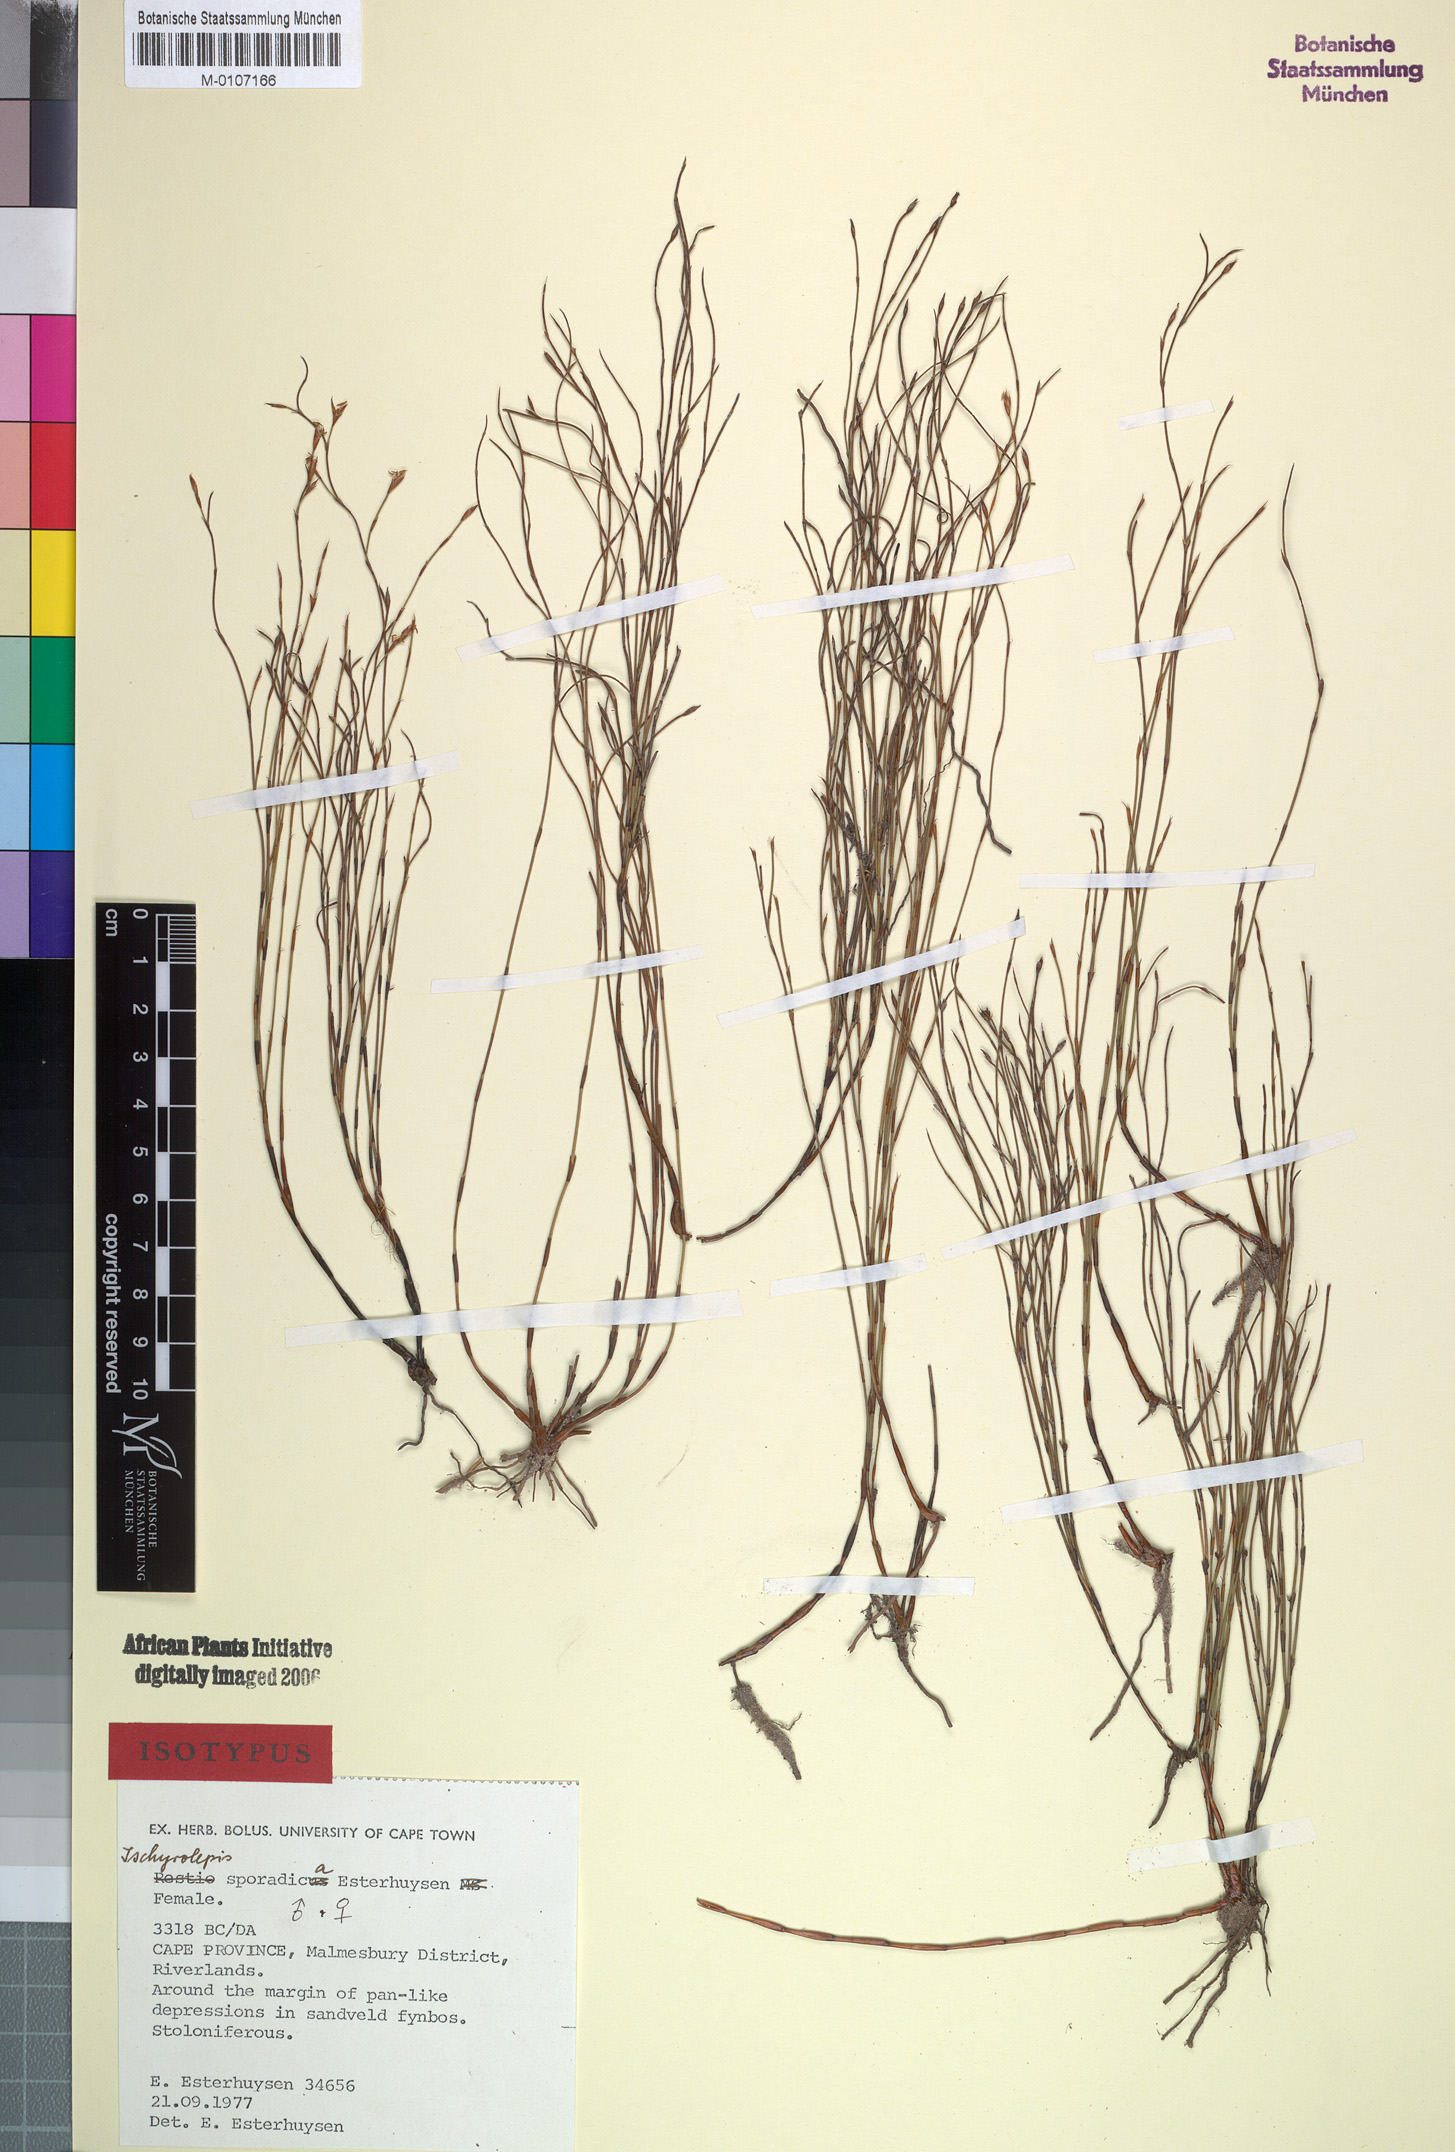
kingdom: Plantae
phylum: Tracheophyta
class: Liliopsida
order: Poales
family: Restionaceae
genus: Restio
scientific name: Restio sporadicus
